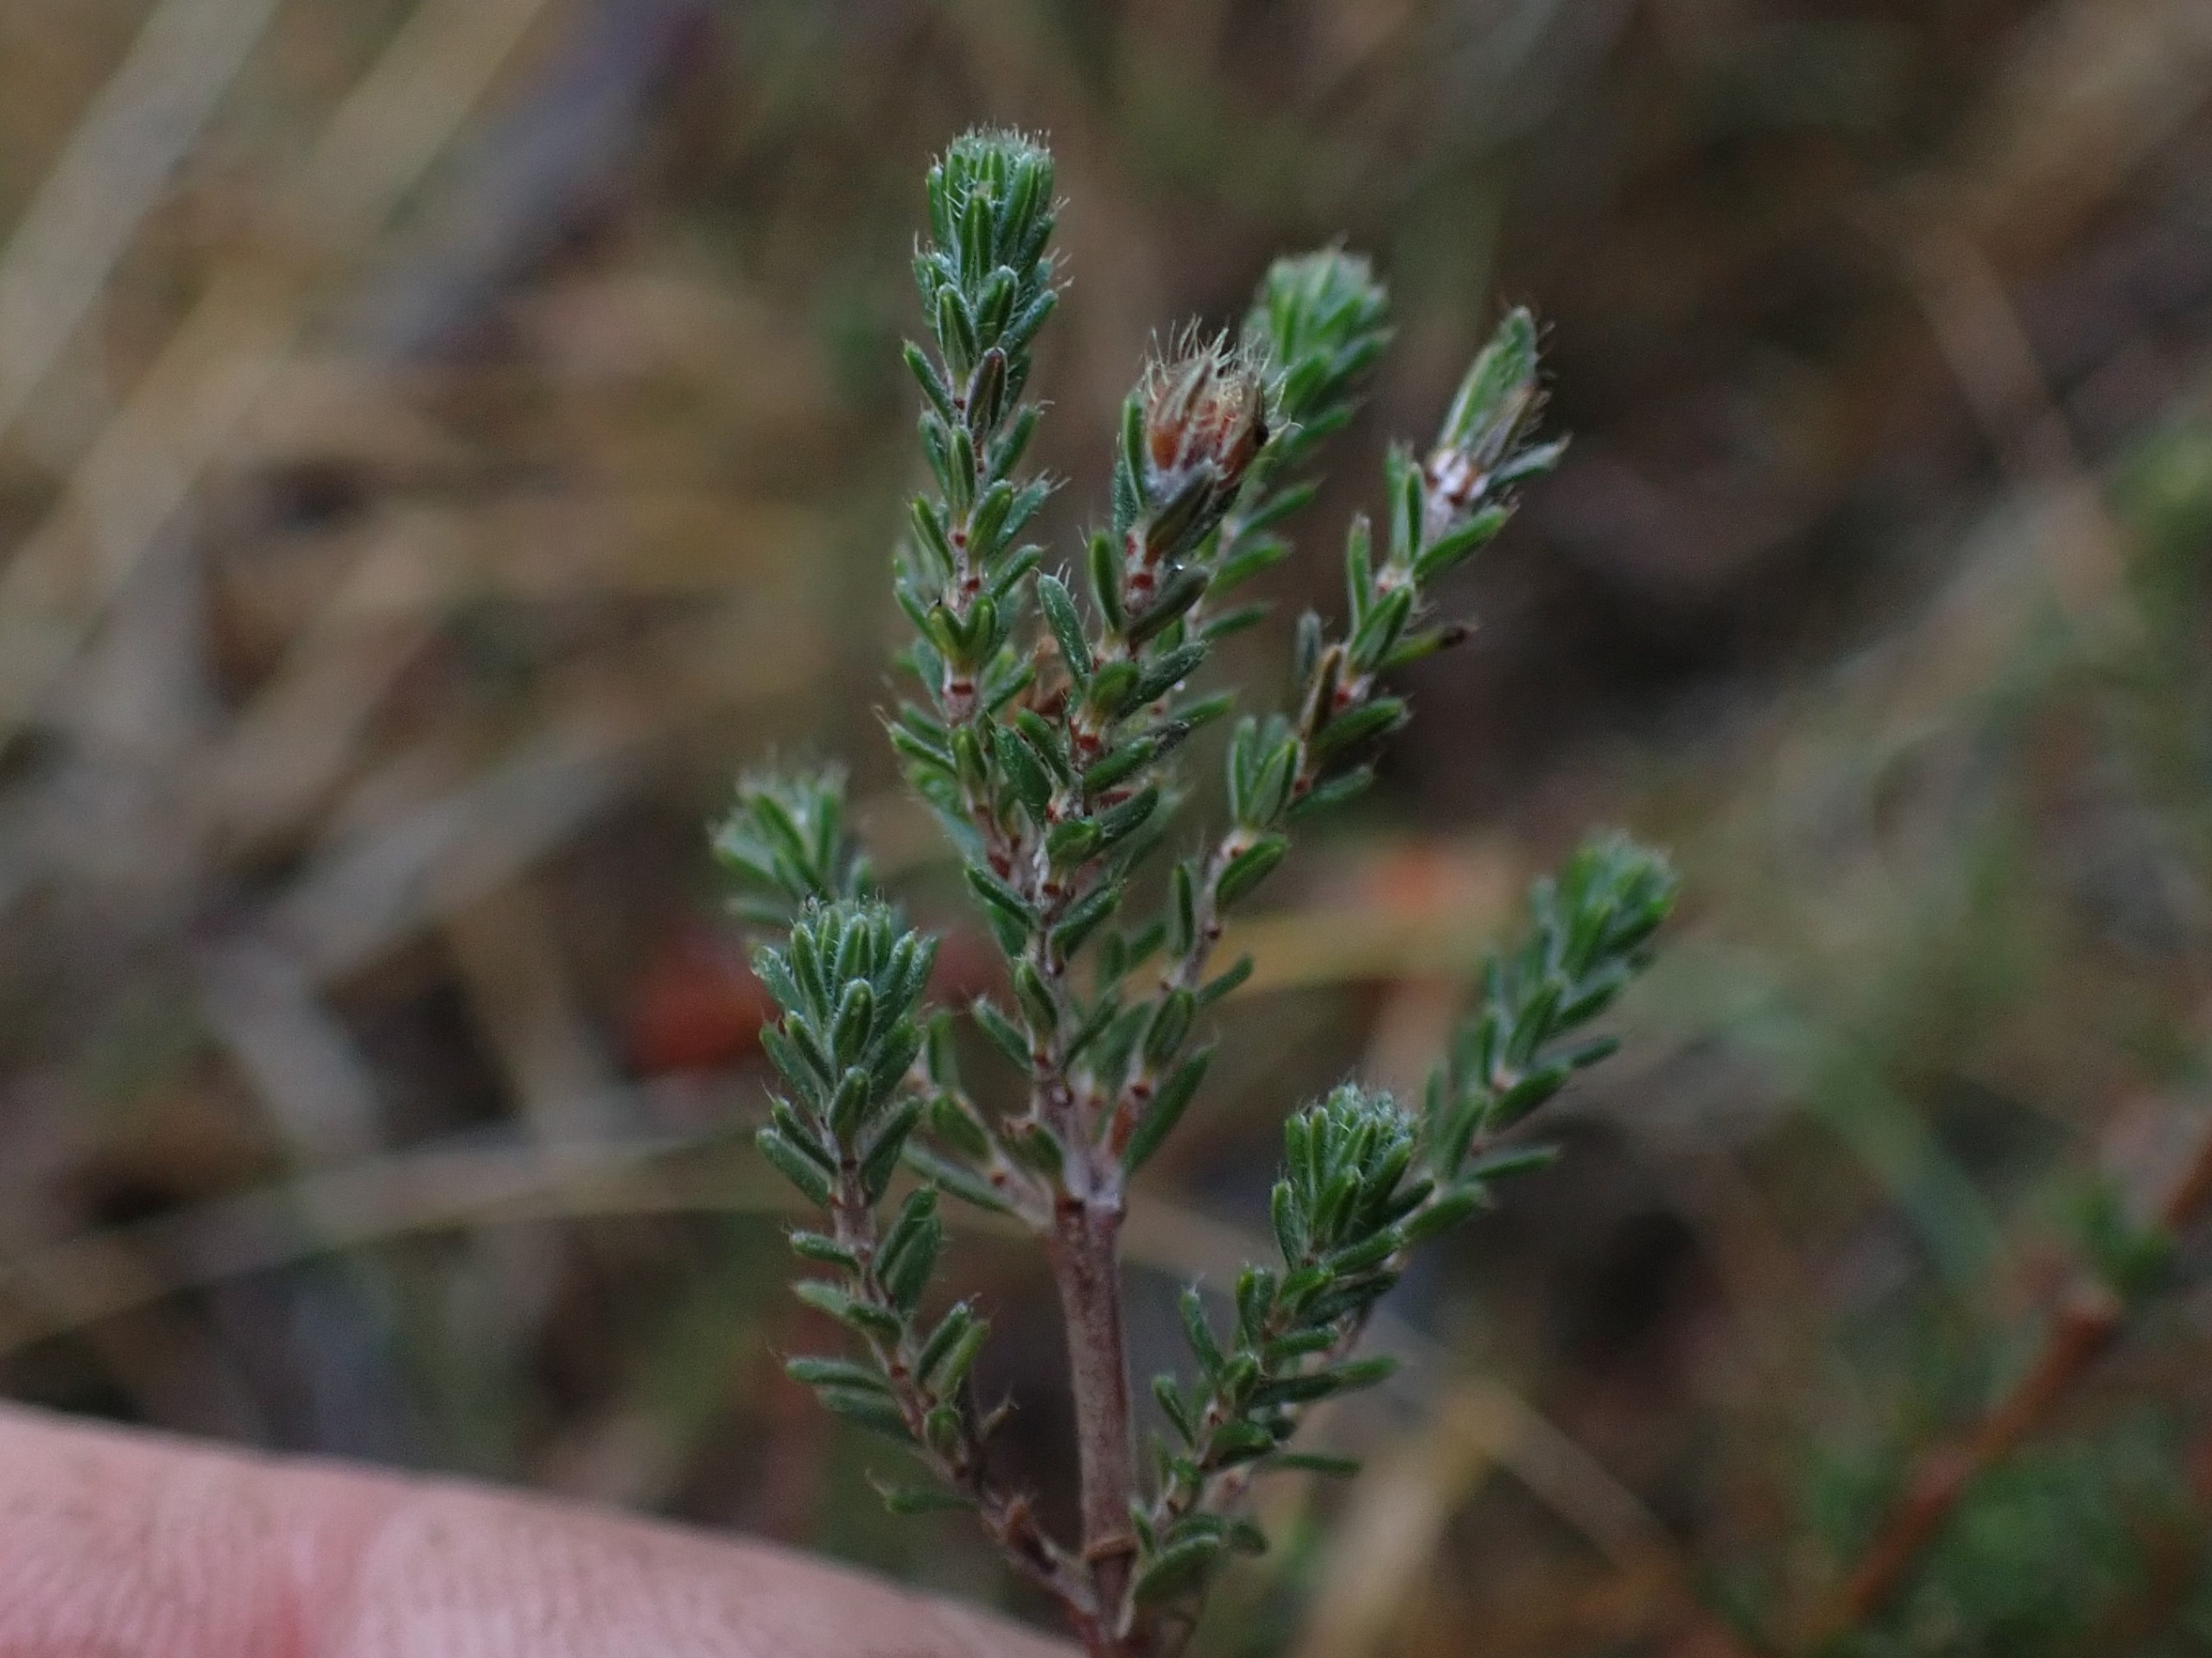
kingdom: Plantae
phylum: Tracheophyta
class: Magnoliopsida
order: Ericales
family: Ericaceae
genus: Erica
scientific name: Erica tetralix
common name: Klokkelyng
